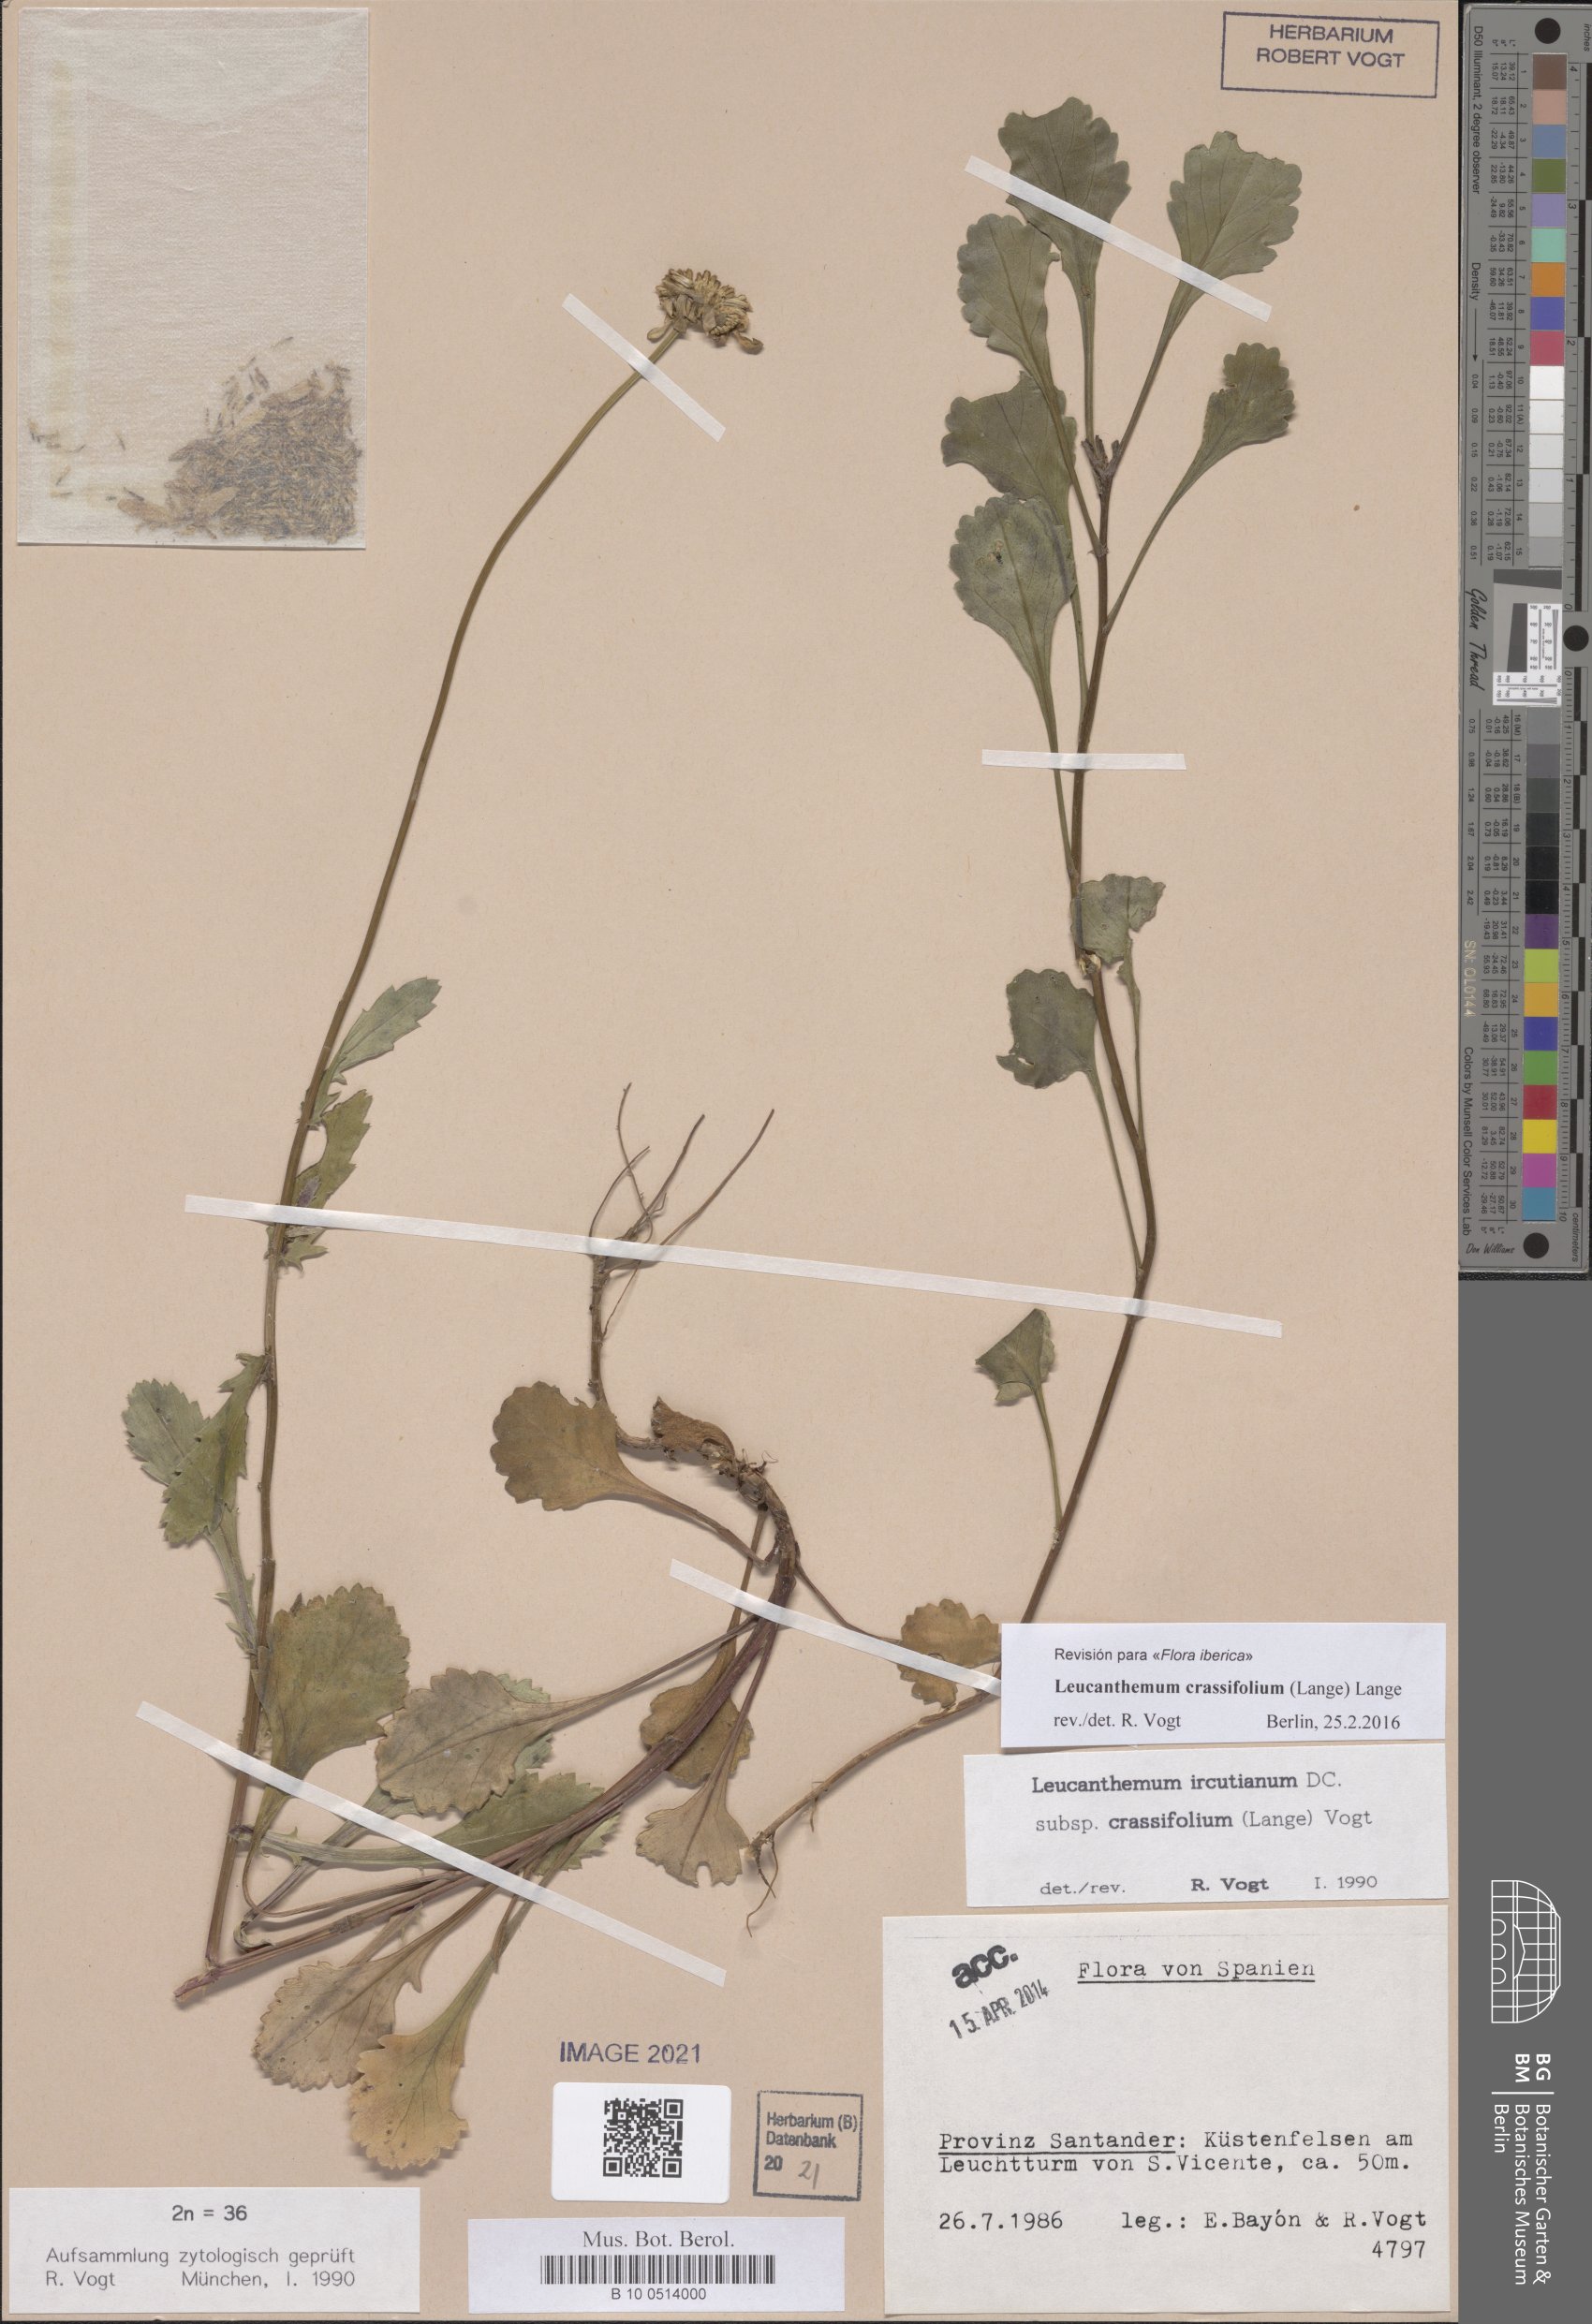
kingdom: Plantae
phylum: Tracheophyta
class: Magnoliopsida
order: Asterales
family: Asteraceae
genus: Leucanthemum
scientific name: Leucanthemum crassifolium
